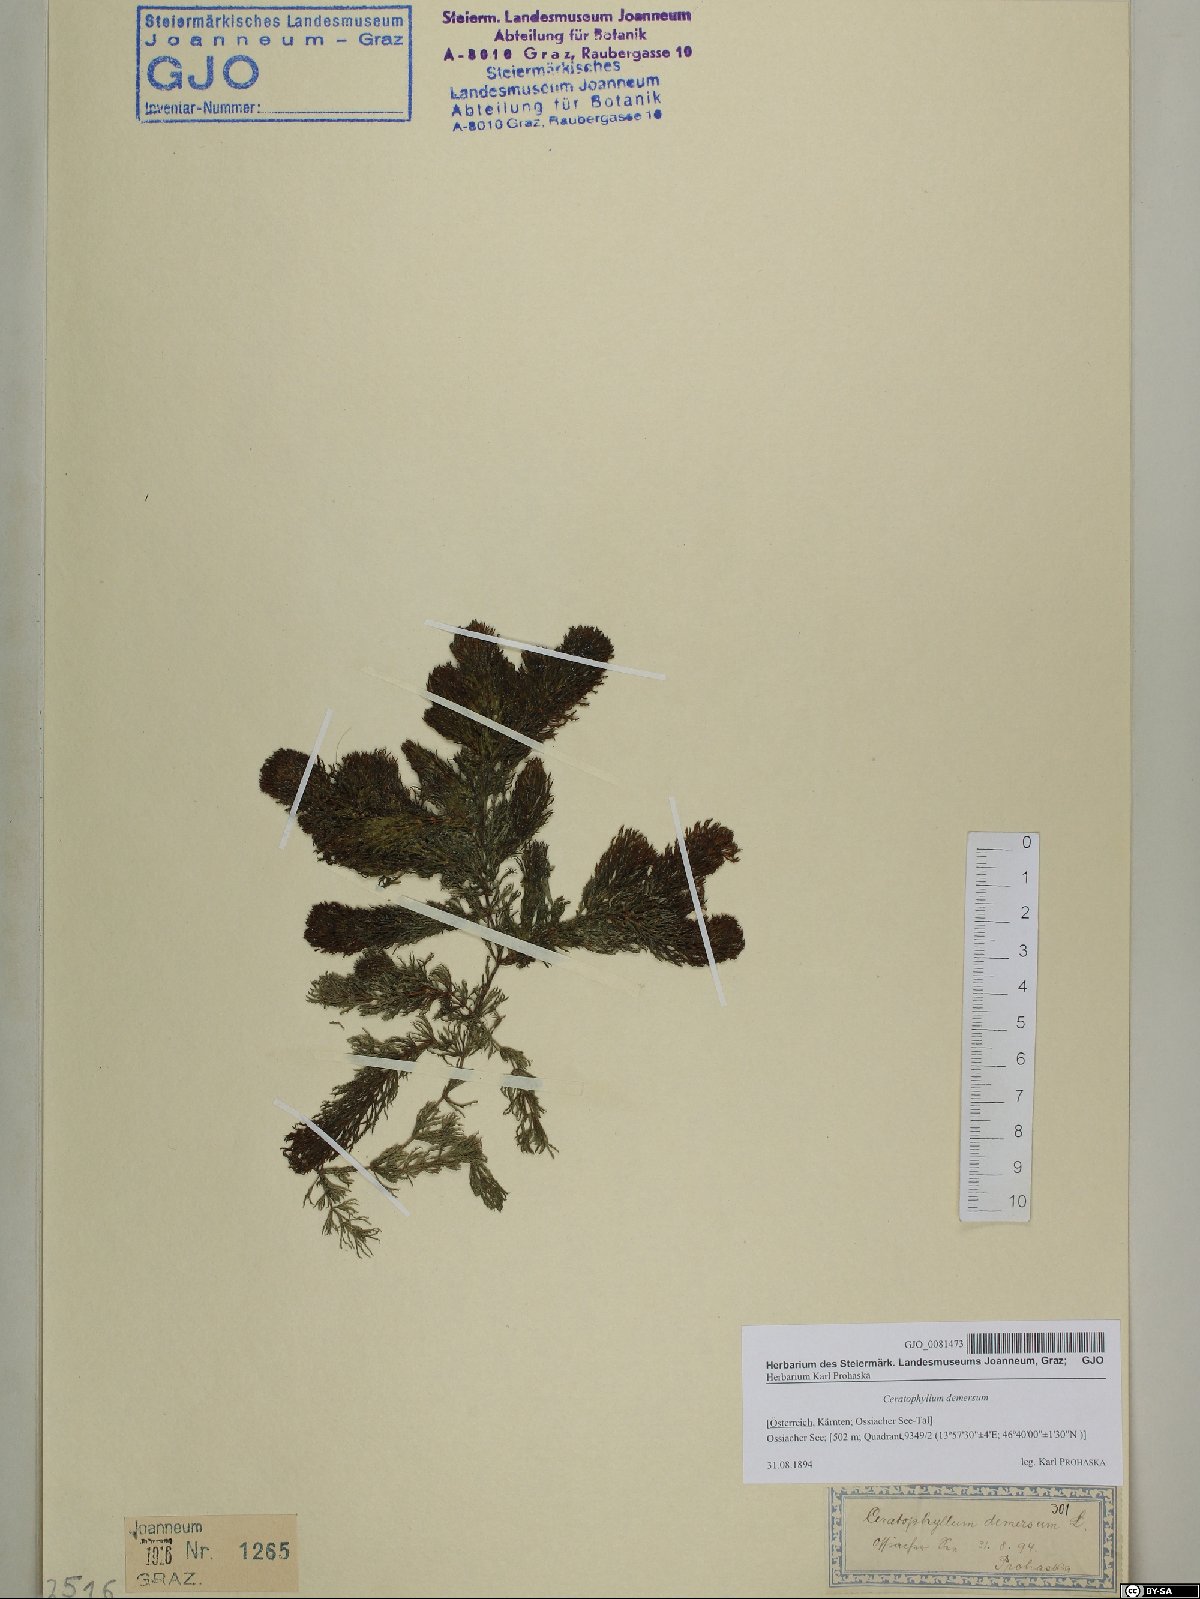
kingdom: Plantae
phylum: Tracheophyta
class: Magnoliopsida
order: Ceratophyllales
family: Ceratophyllaceae
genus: Ceratophyllum
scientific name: Ceratophyllum demersum
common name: Rigid hornwort
